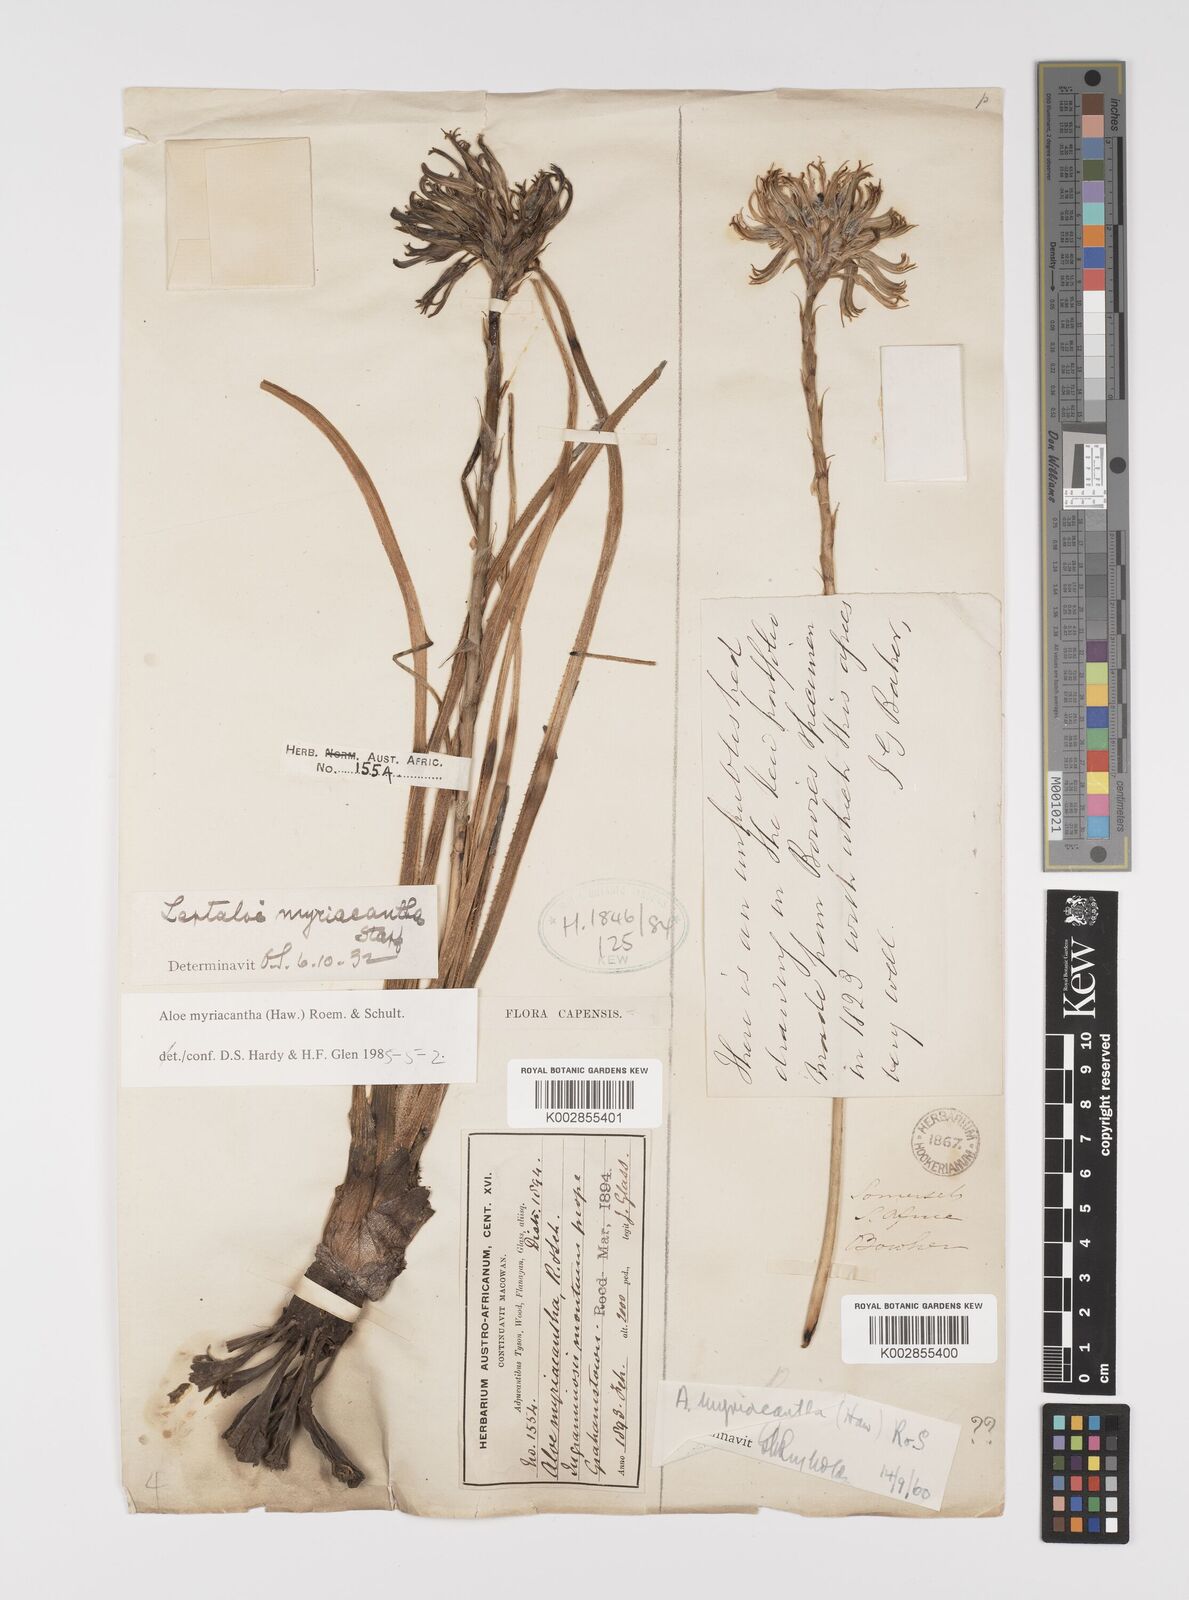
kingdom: Plantae
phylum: Tracheophyta
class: Liliopsida
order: Asparagales
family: Asphodelaceae
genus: Aloe
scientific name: Aloe myriacantha
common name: Grass aloe
